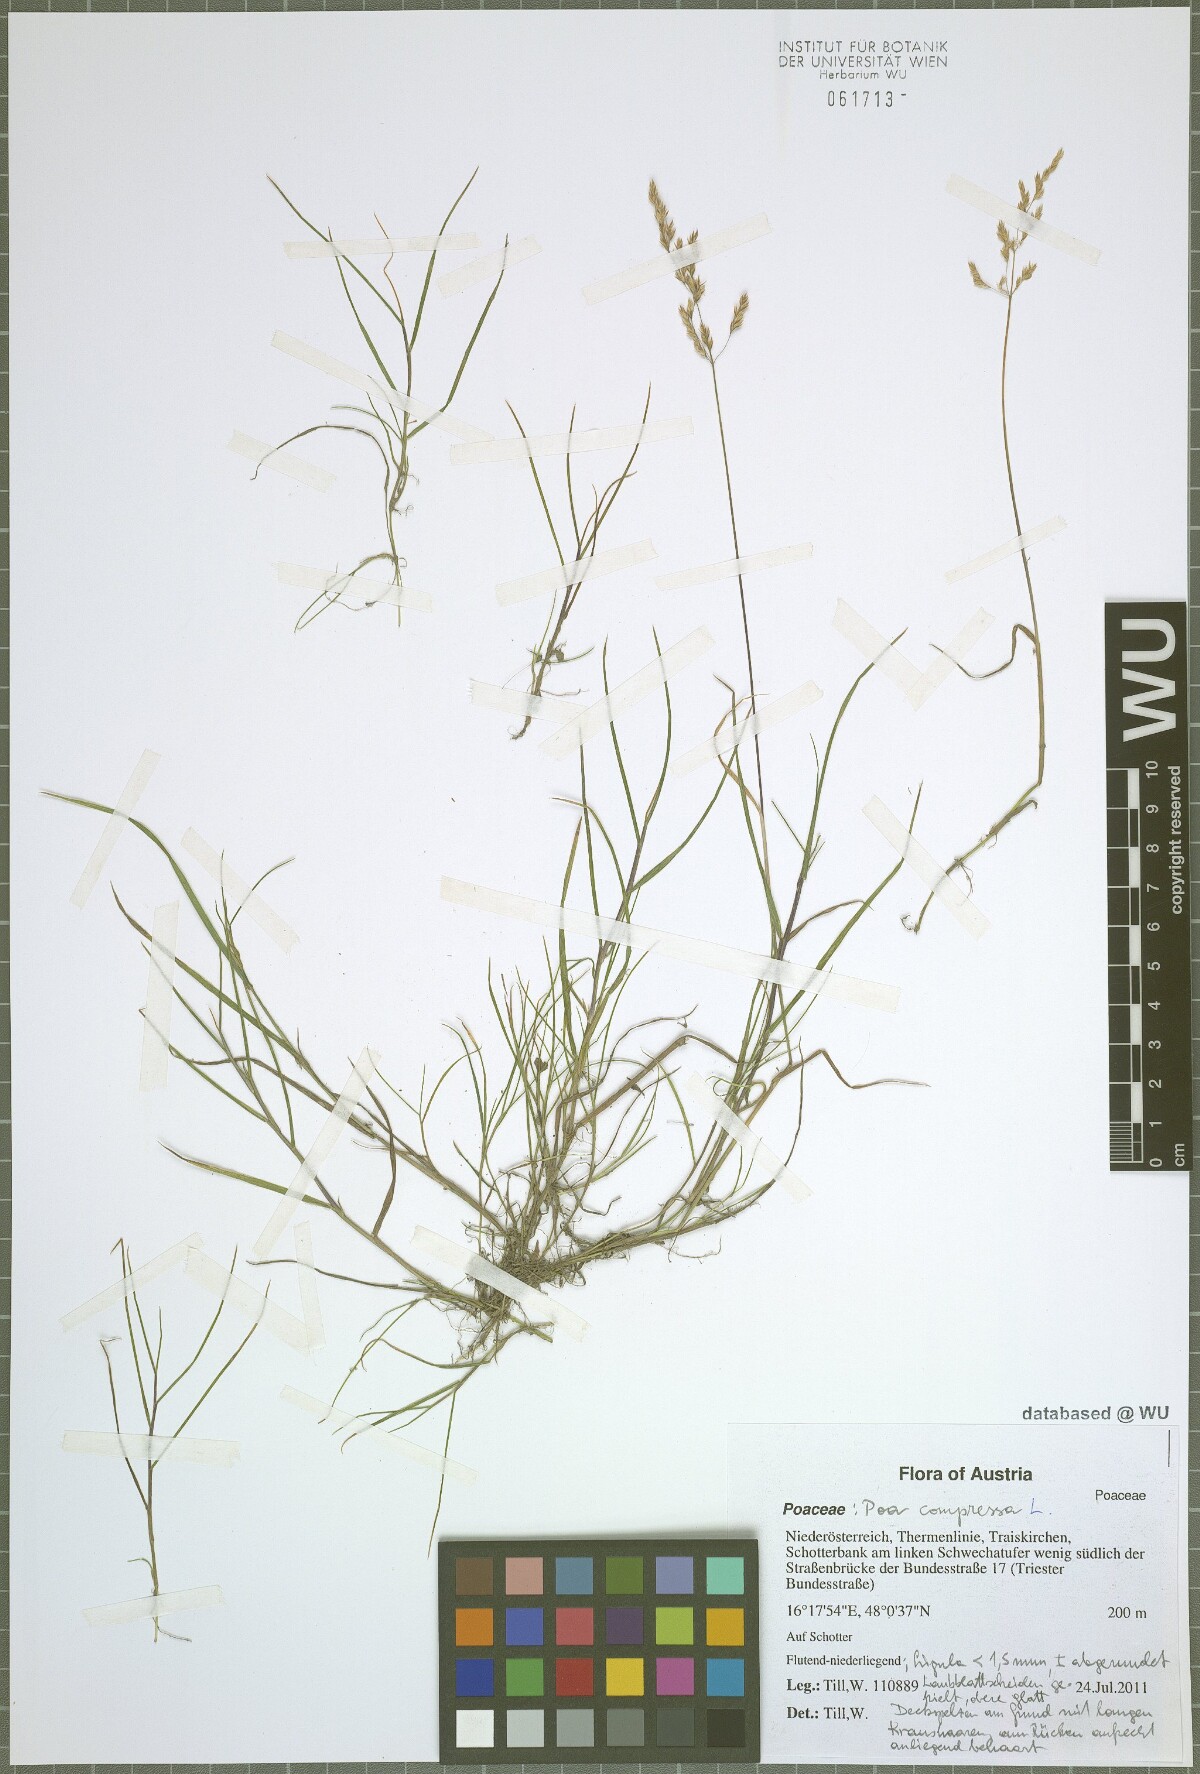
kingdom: Plantae
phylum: Tracheophyta
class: Liliopsida
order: Poales
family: Poaceae
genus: Poa
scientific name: Poa compressa
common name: Canada bluegrass
